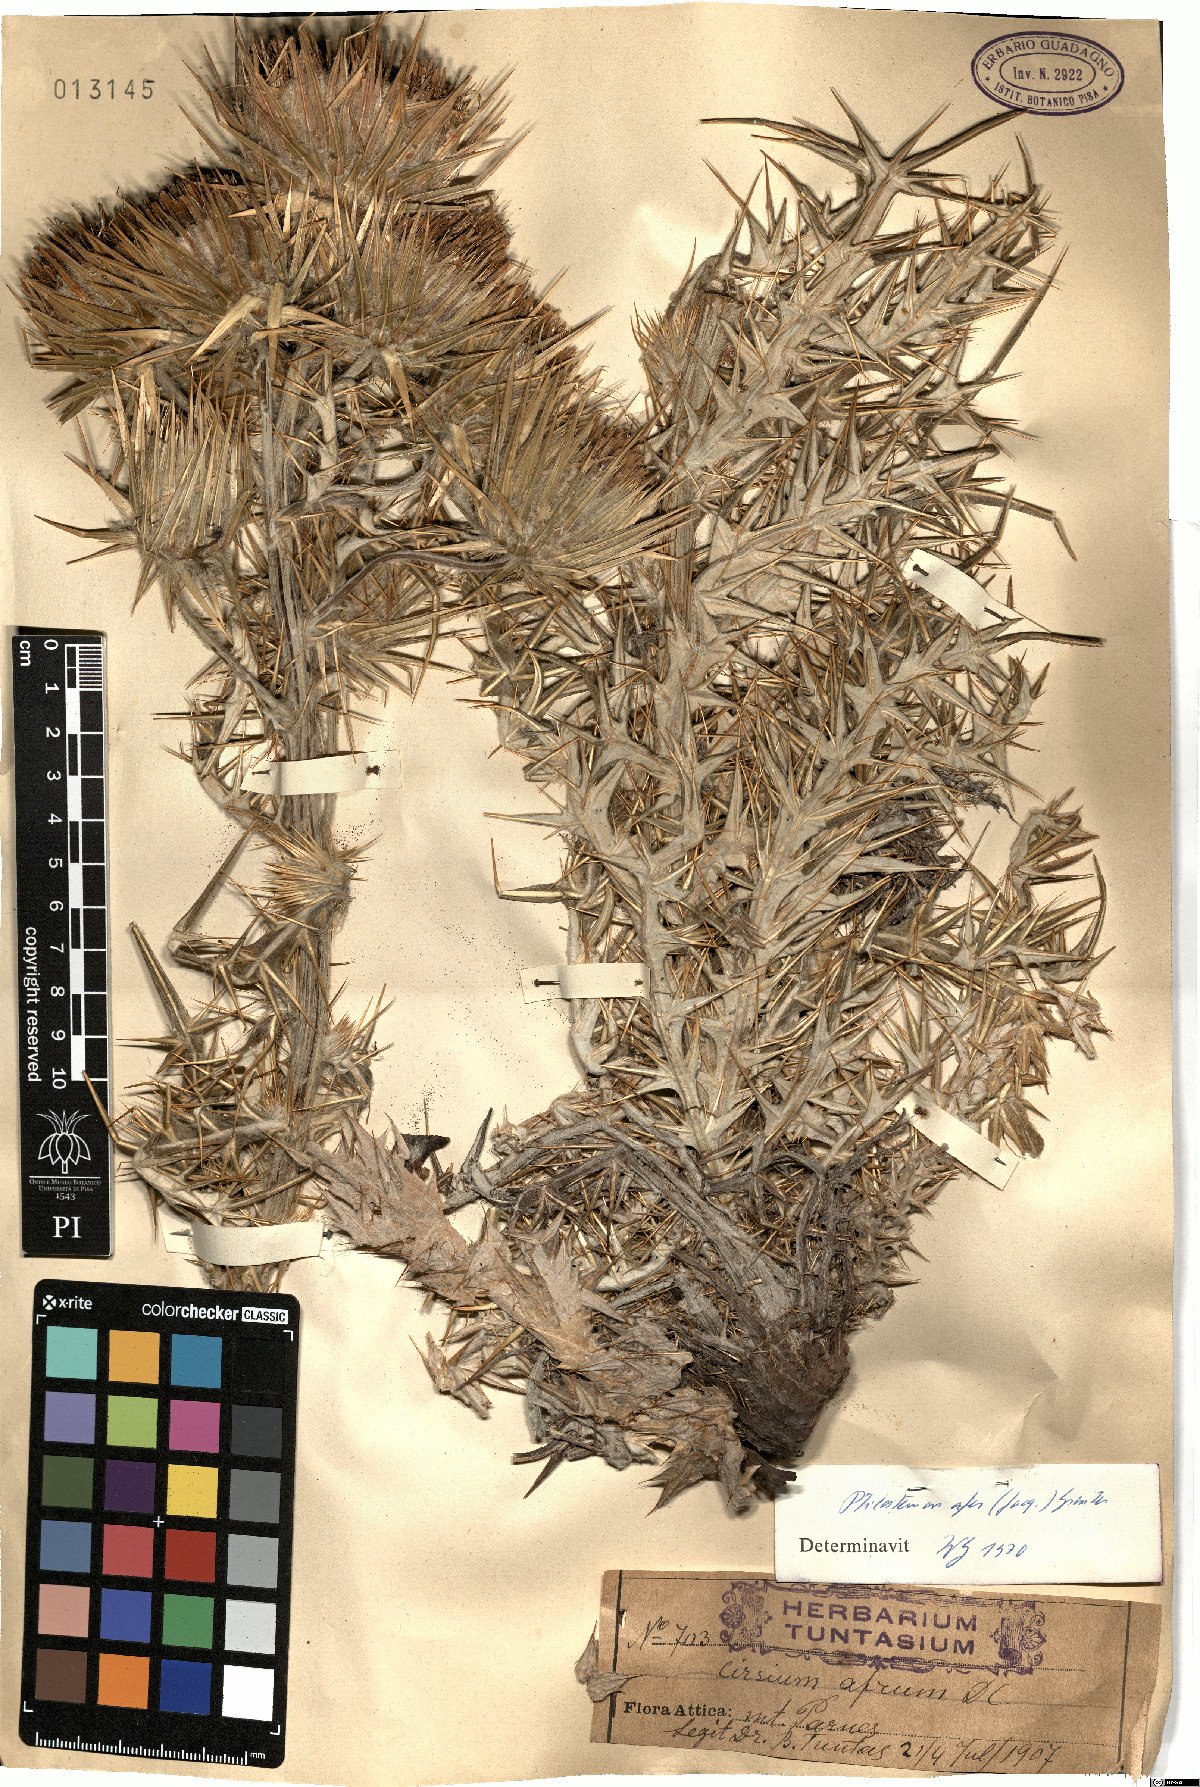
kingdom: Plantae
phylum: Tracheophyta
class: Magnoliopsida
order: Asterales
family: Asteraceae
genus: Ptilostemon
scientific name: Ptilostemon afer
